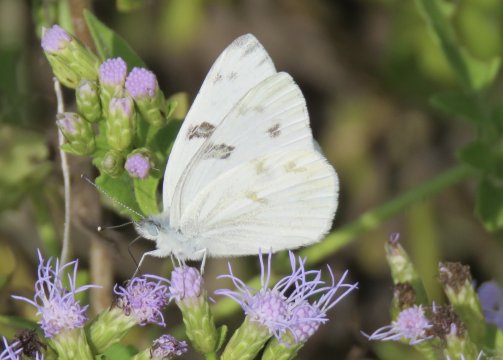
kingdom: Animalia
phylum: Arthropoda
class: Insecta
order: Lepidoptera
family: Pieridae
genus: Pontia
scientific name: Pontia protodice
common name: Checkered White
